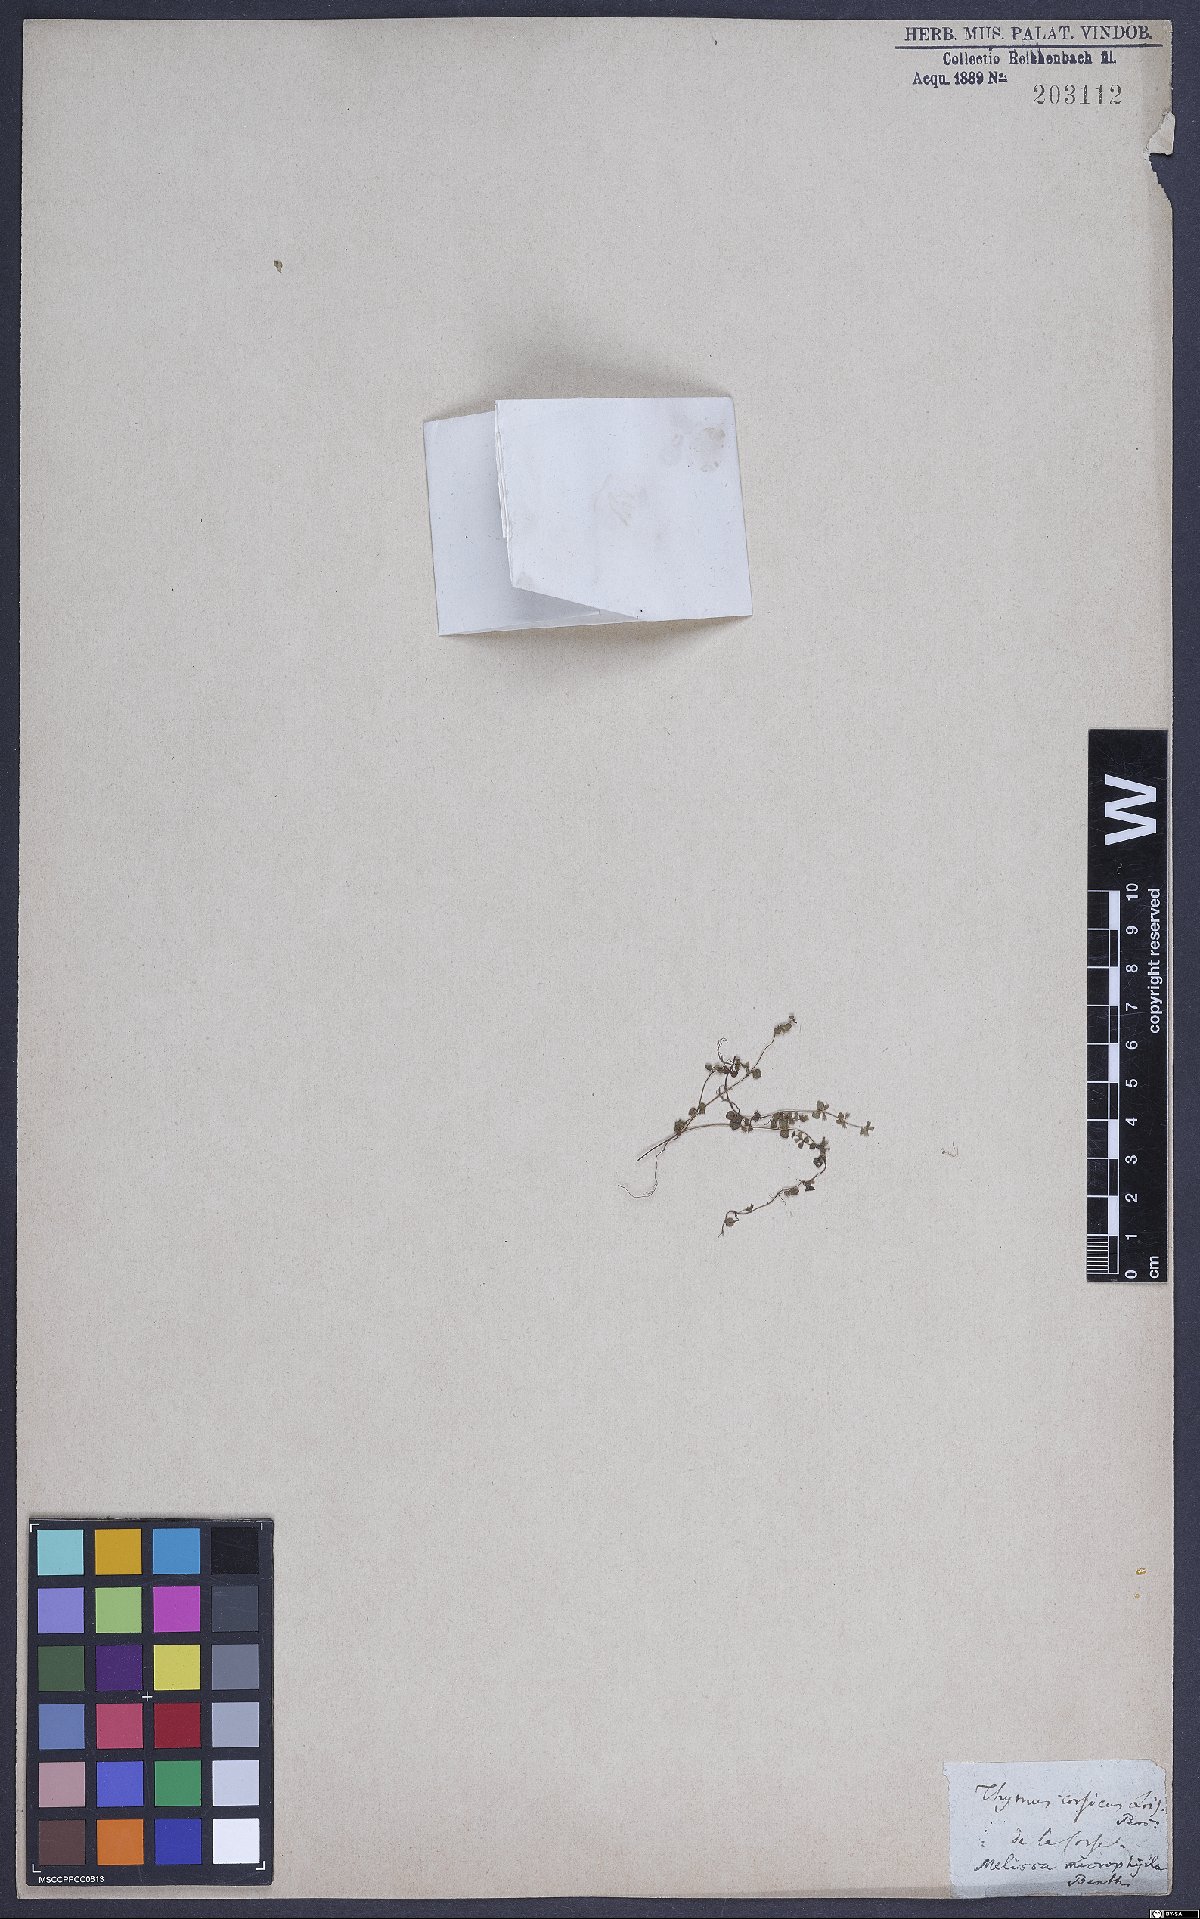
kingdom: Plantae
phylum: Tracheophyta
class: Magnoliopsida
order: Lamiales
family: Lamiaceae
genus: Calamintha
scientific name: Calamintha
